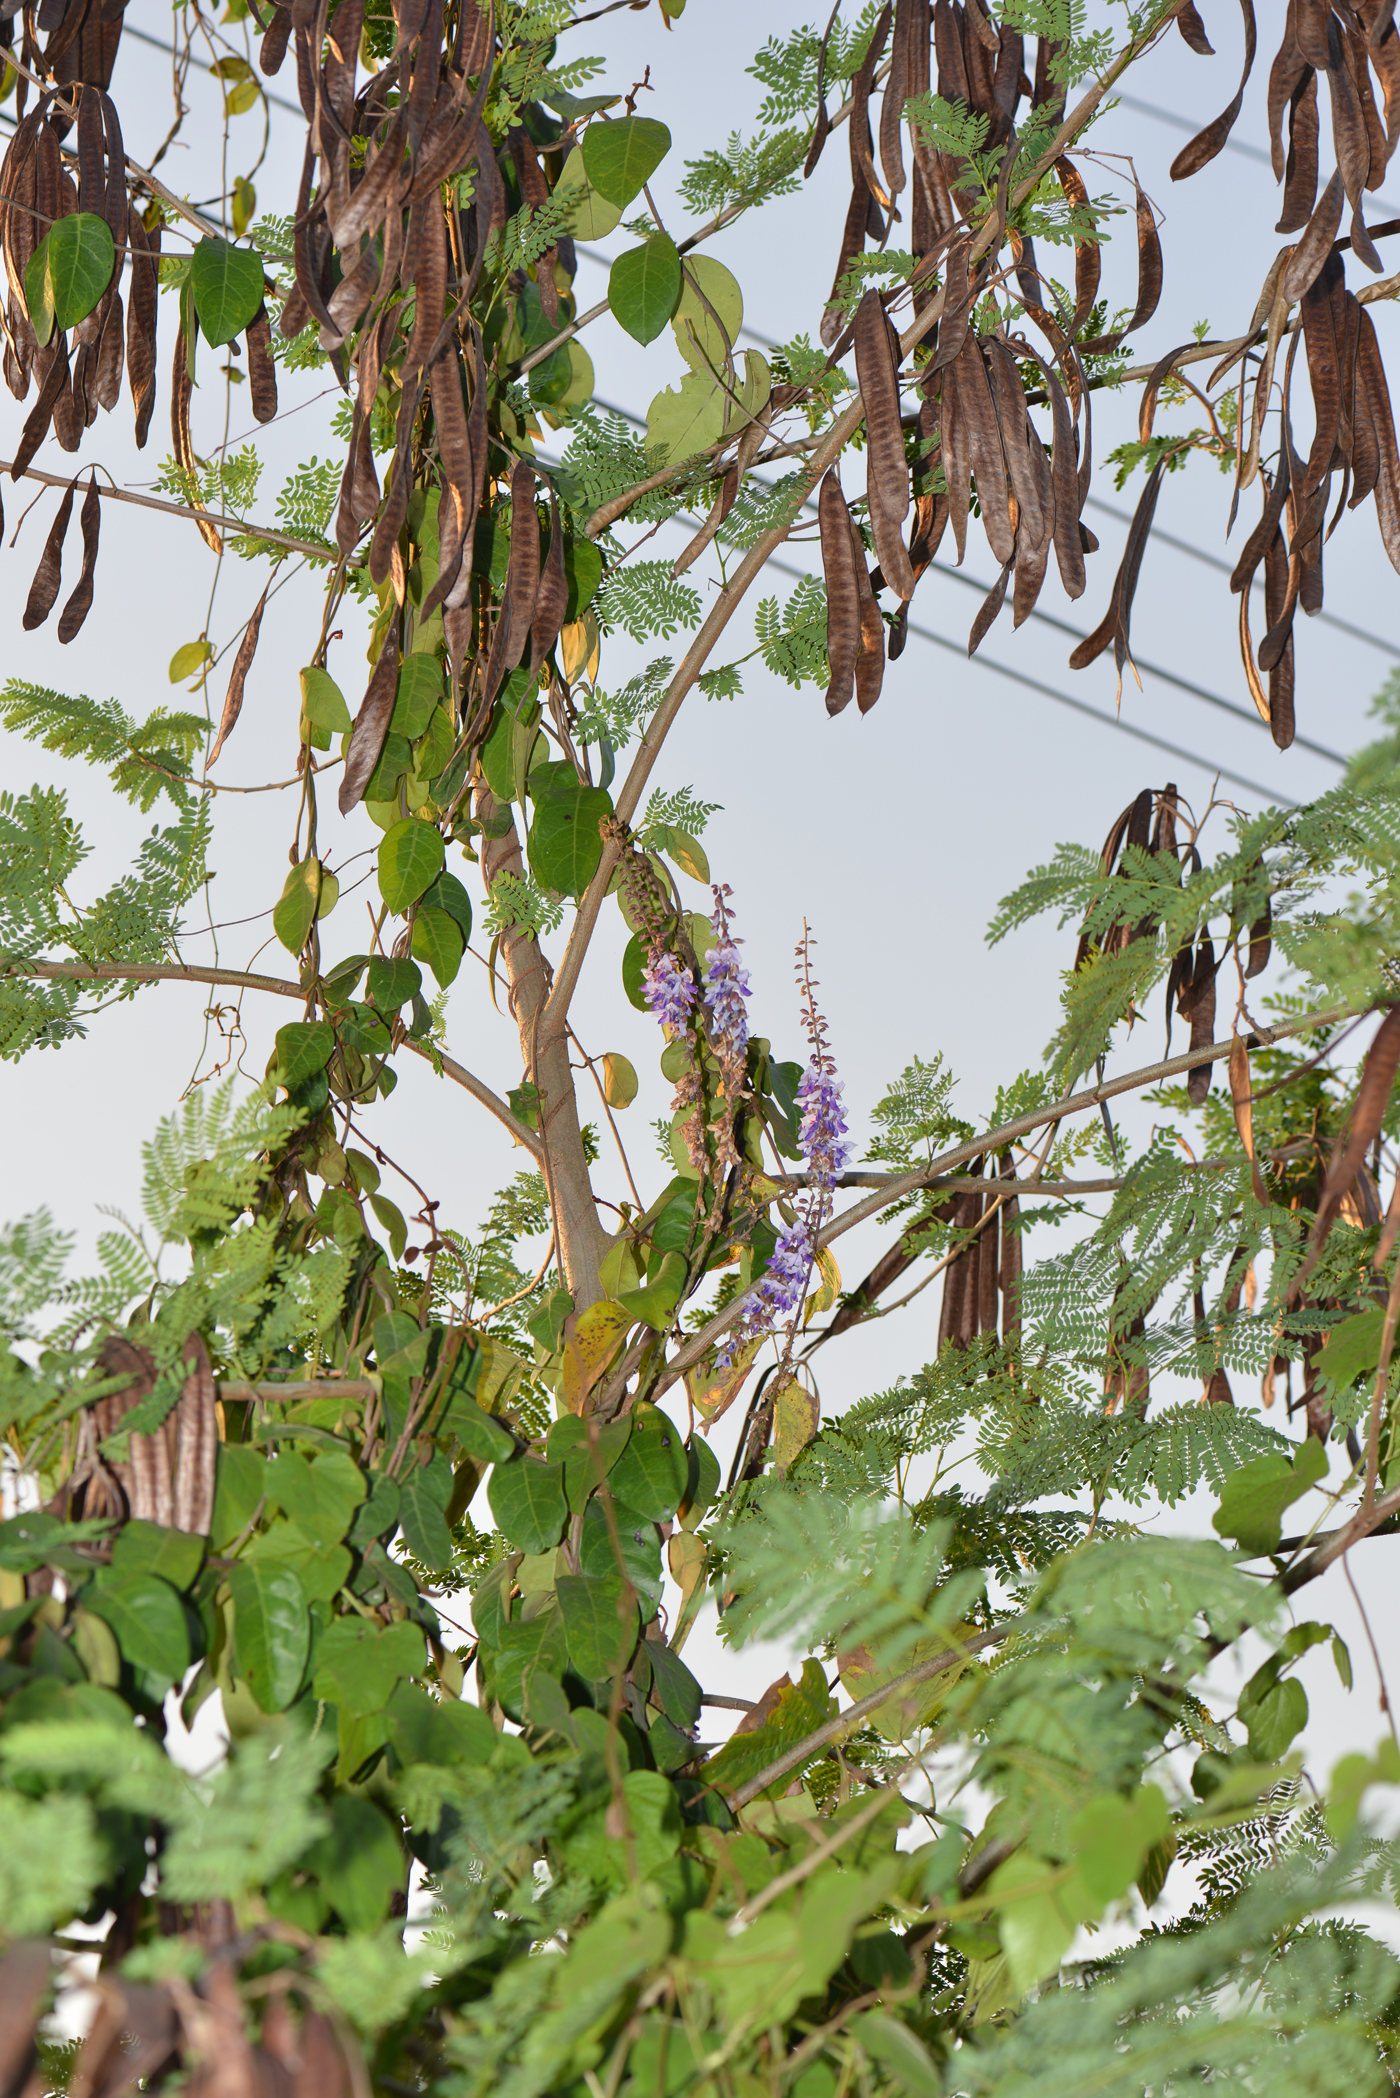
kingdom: Plantae
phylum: Tracheophyta
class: Magnoliopsida
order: Fabales
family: Fabaceae
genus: Pueraria
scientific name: Pueraria imbricata
